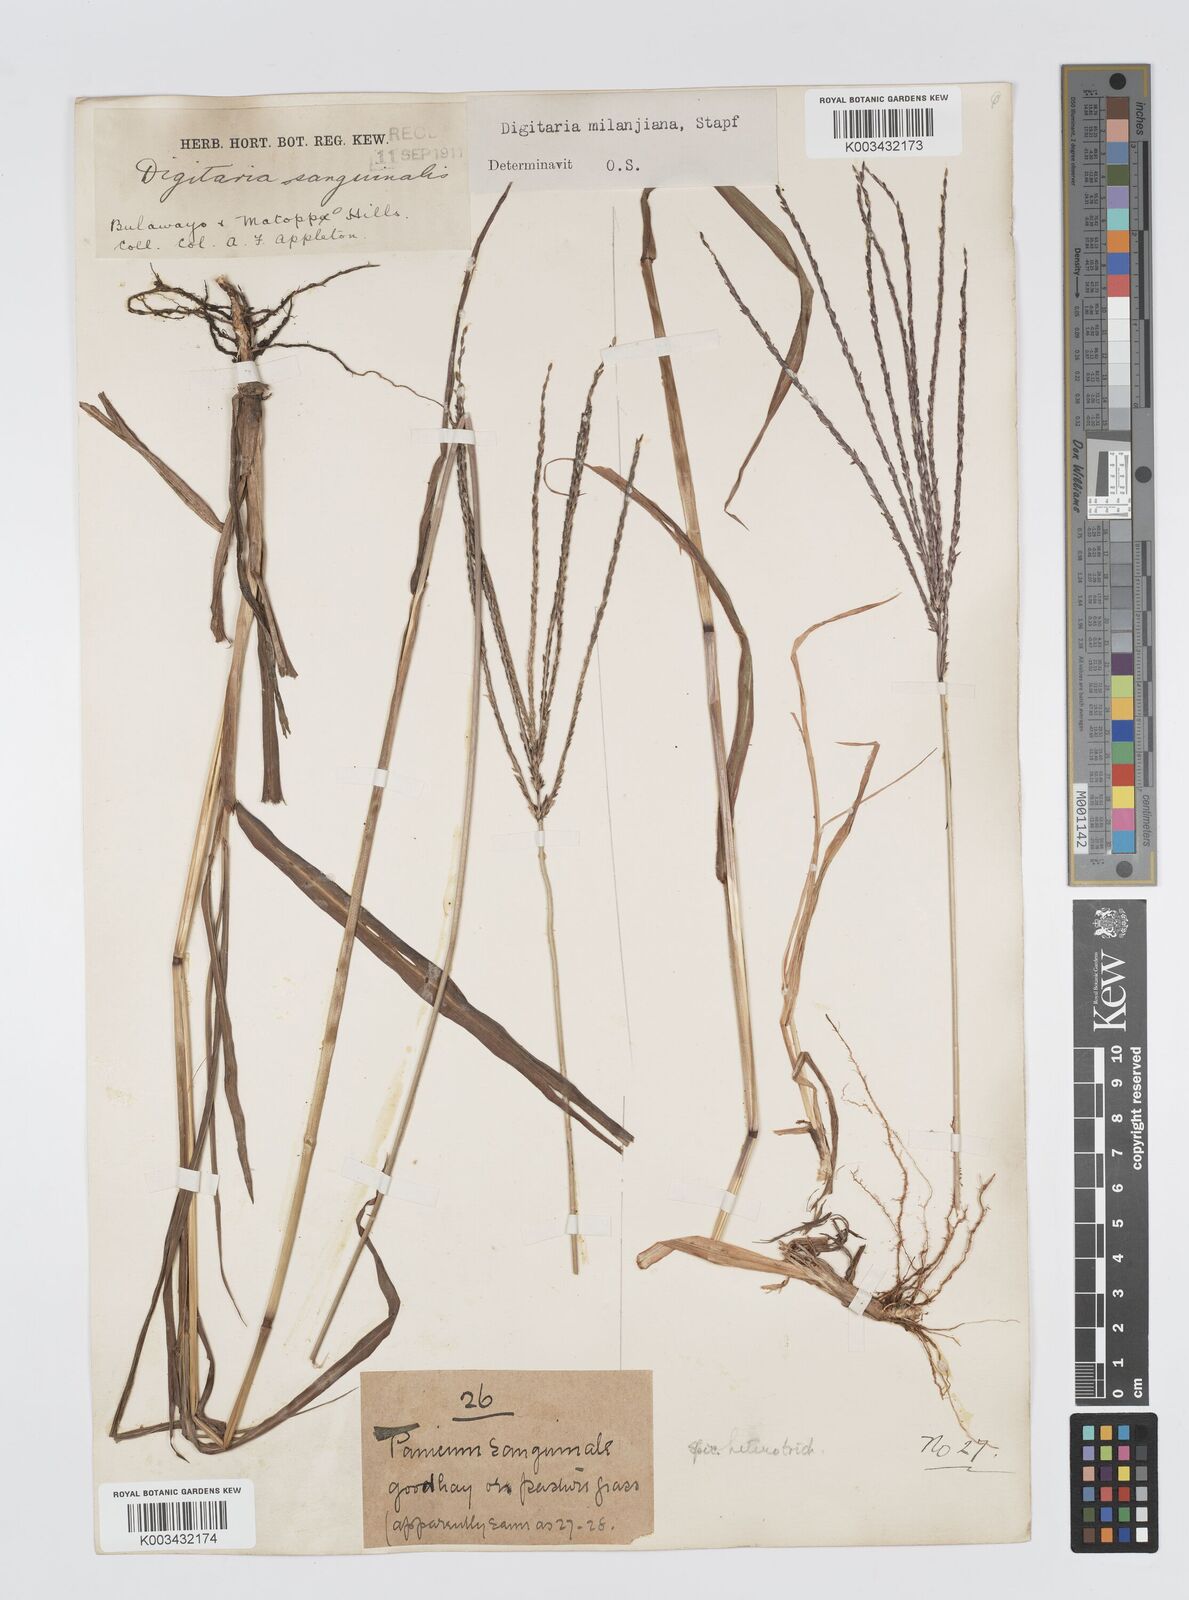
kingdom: Plantae
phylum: Tracheophyta
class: Liliopsida
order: Poales
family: Poaceae
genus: Digitaria
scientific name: Digitaria milanjiana
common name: Madagascar crabgrass
